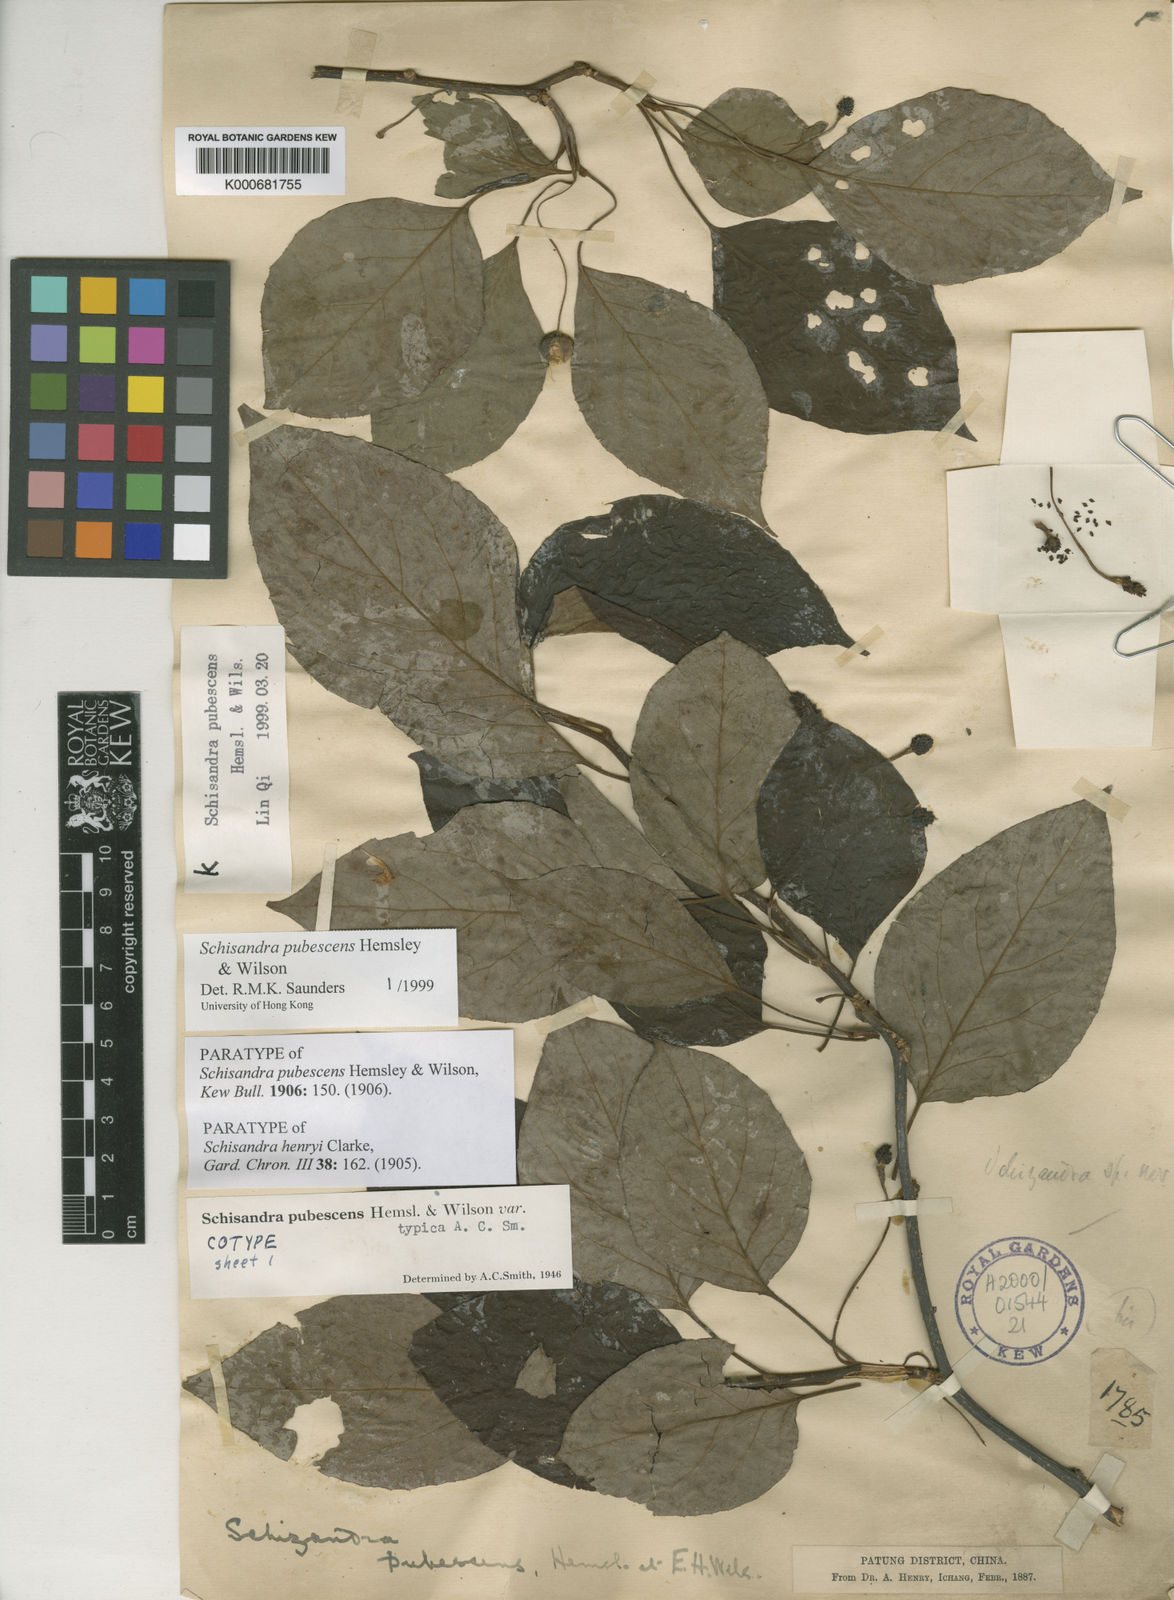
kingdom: Plantae
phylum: Tracheophyta
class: Magnoliopsida
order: Austrobaileyales
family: Schisandraceae
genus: Schisandra
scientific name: Schisandra pubescens
